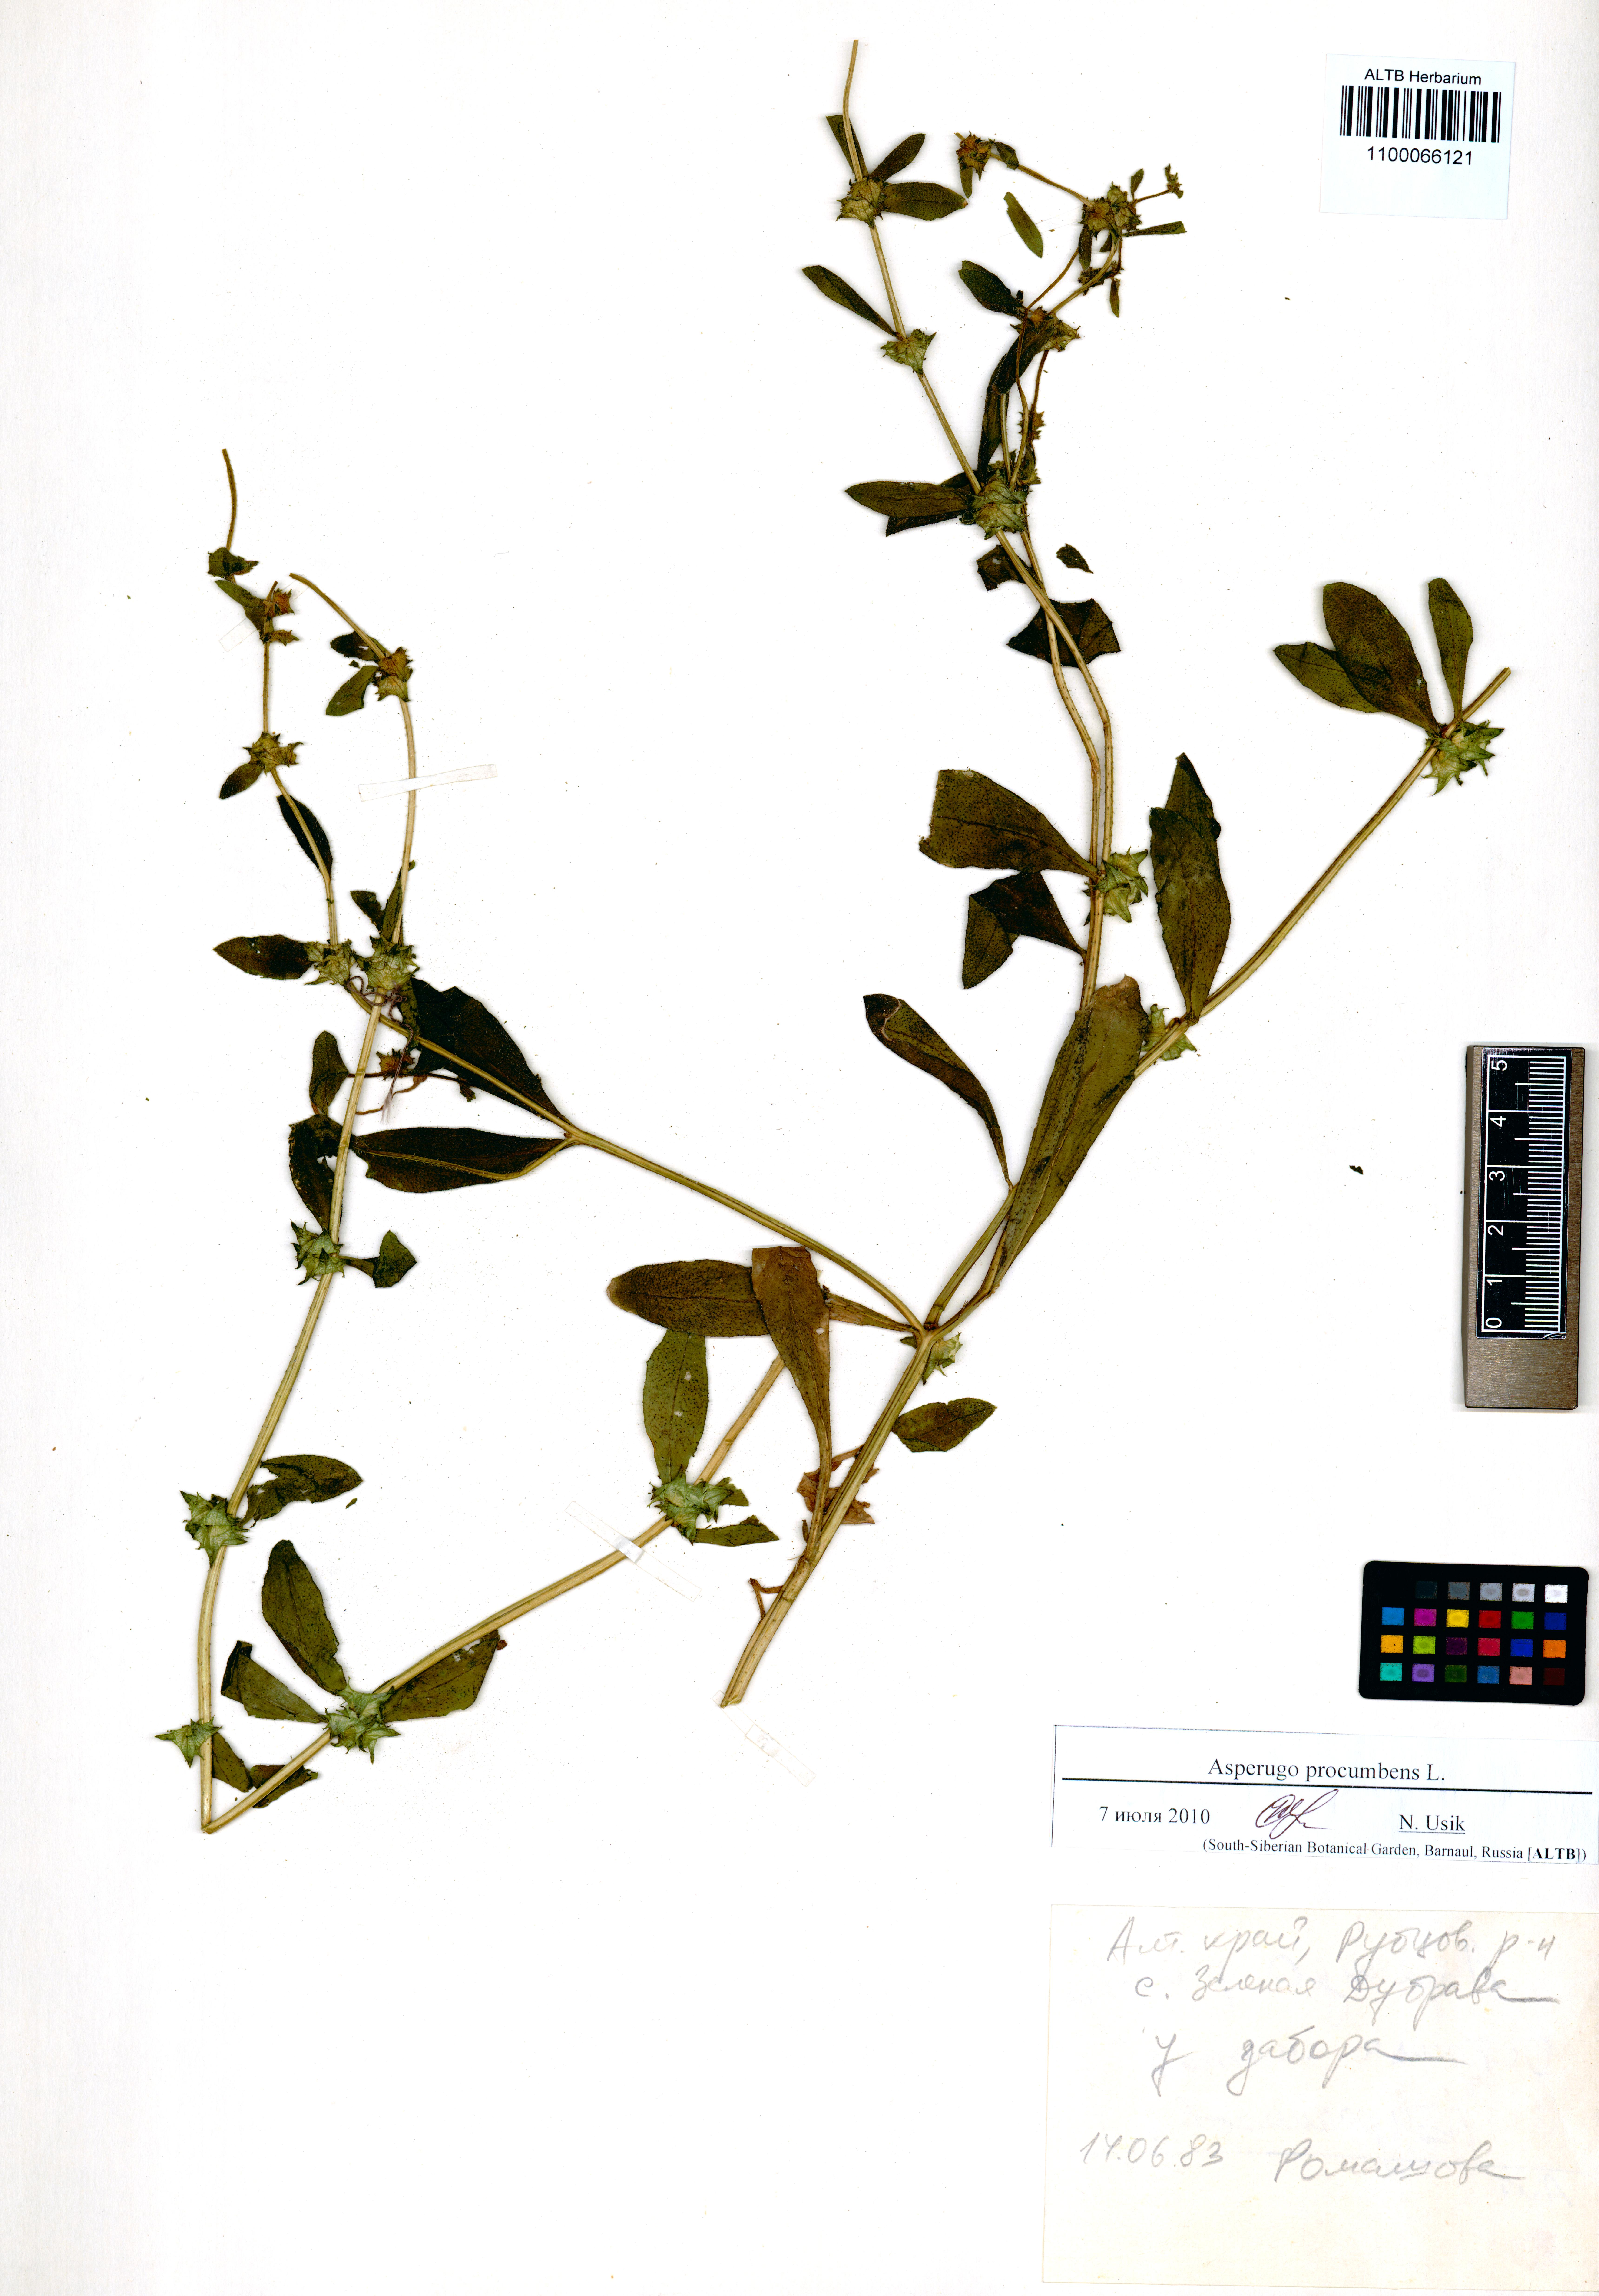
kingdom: Plantae
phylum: Tracheophyta
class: Magnoliopsida
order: Boraginales
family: Boraginaceae
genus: Asperugo
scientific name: Asperugo procumbens
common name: Madwort
